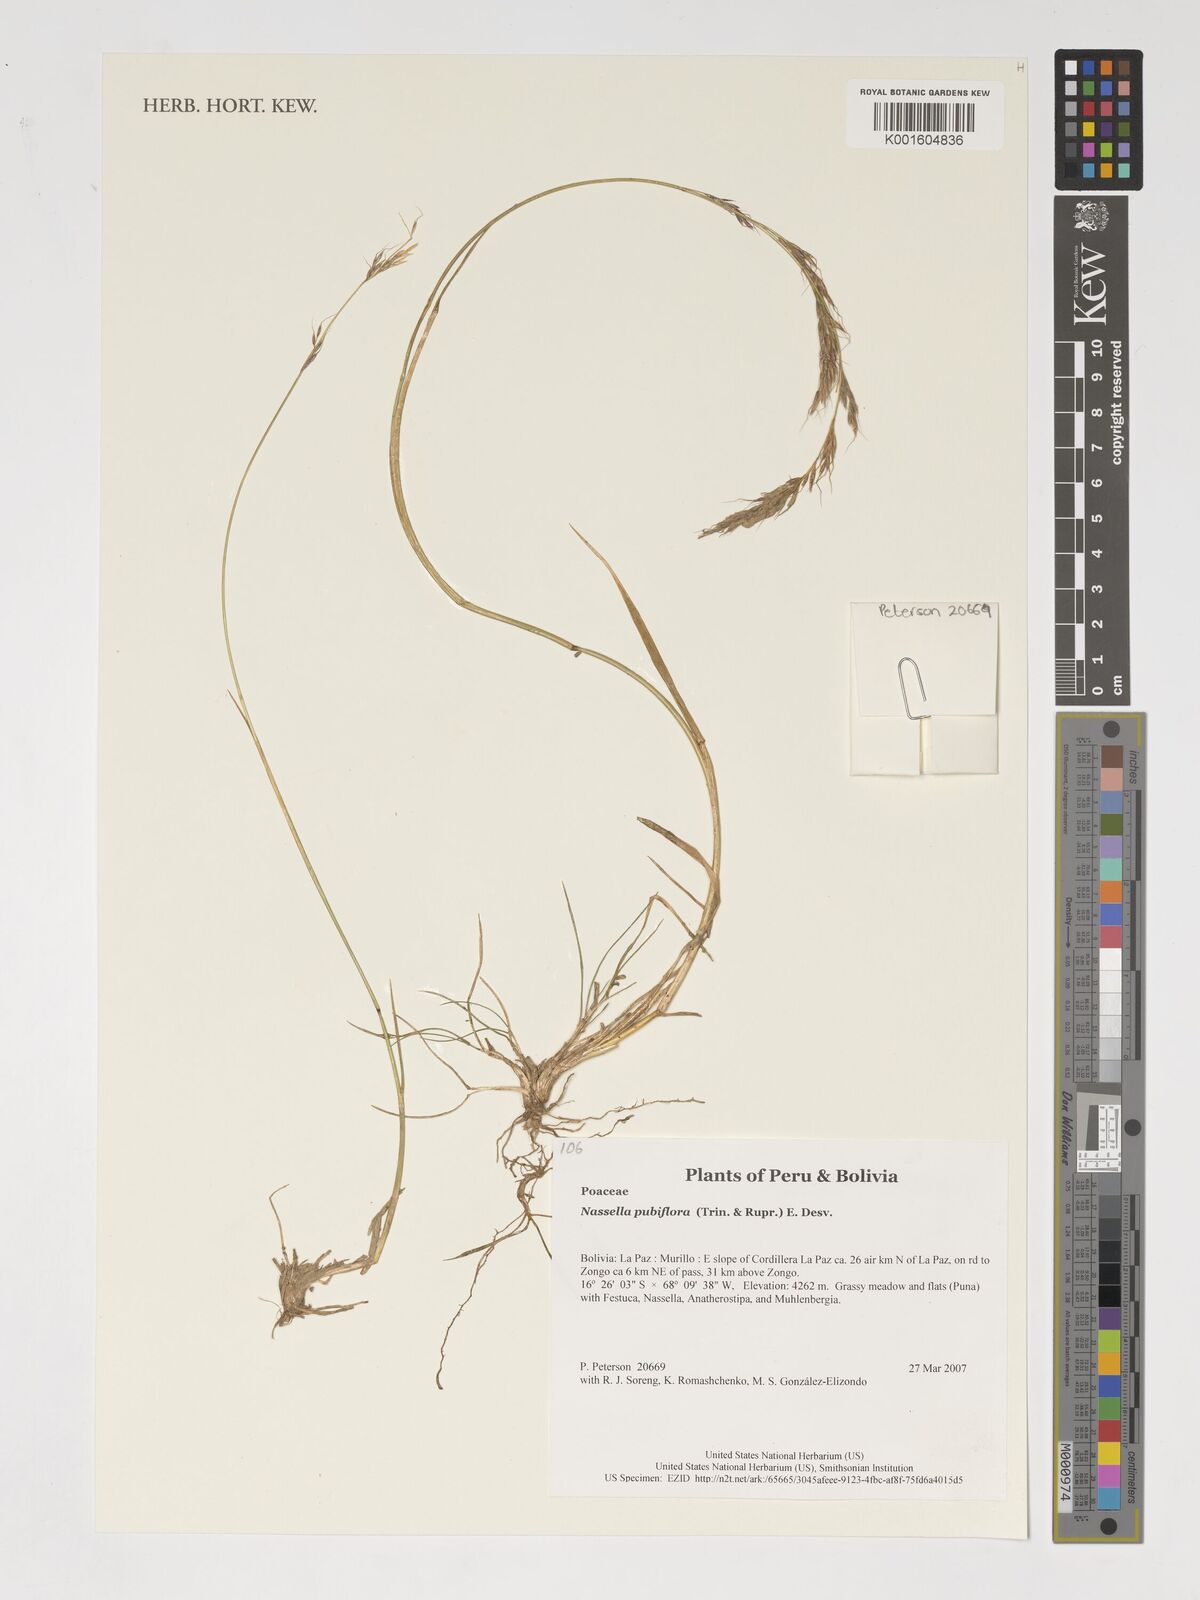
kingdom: Plantae
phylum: Tracheophyta
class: Liliopsida
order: Poales
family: Poaceae
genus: Nassella
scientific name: Nassella pubiflora
